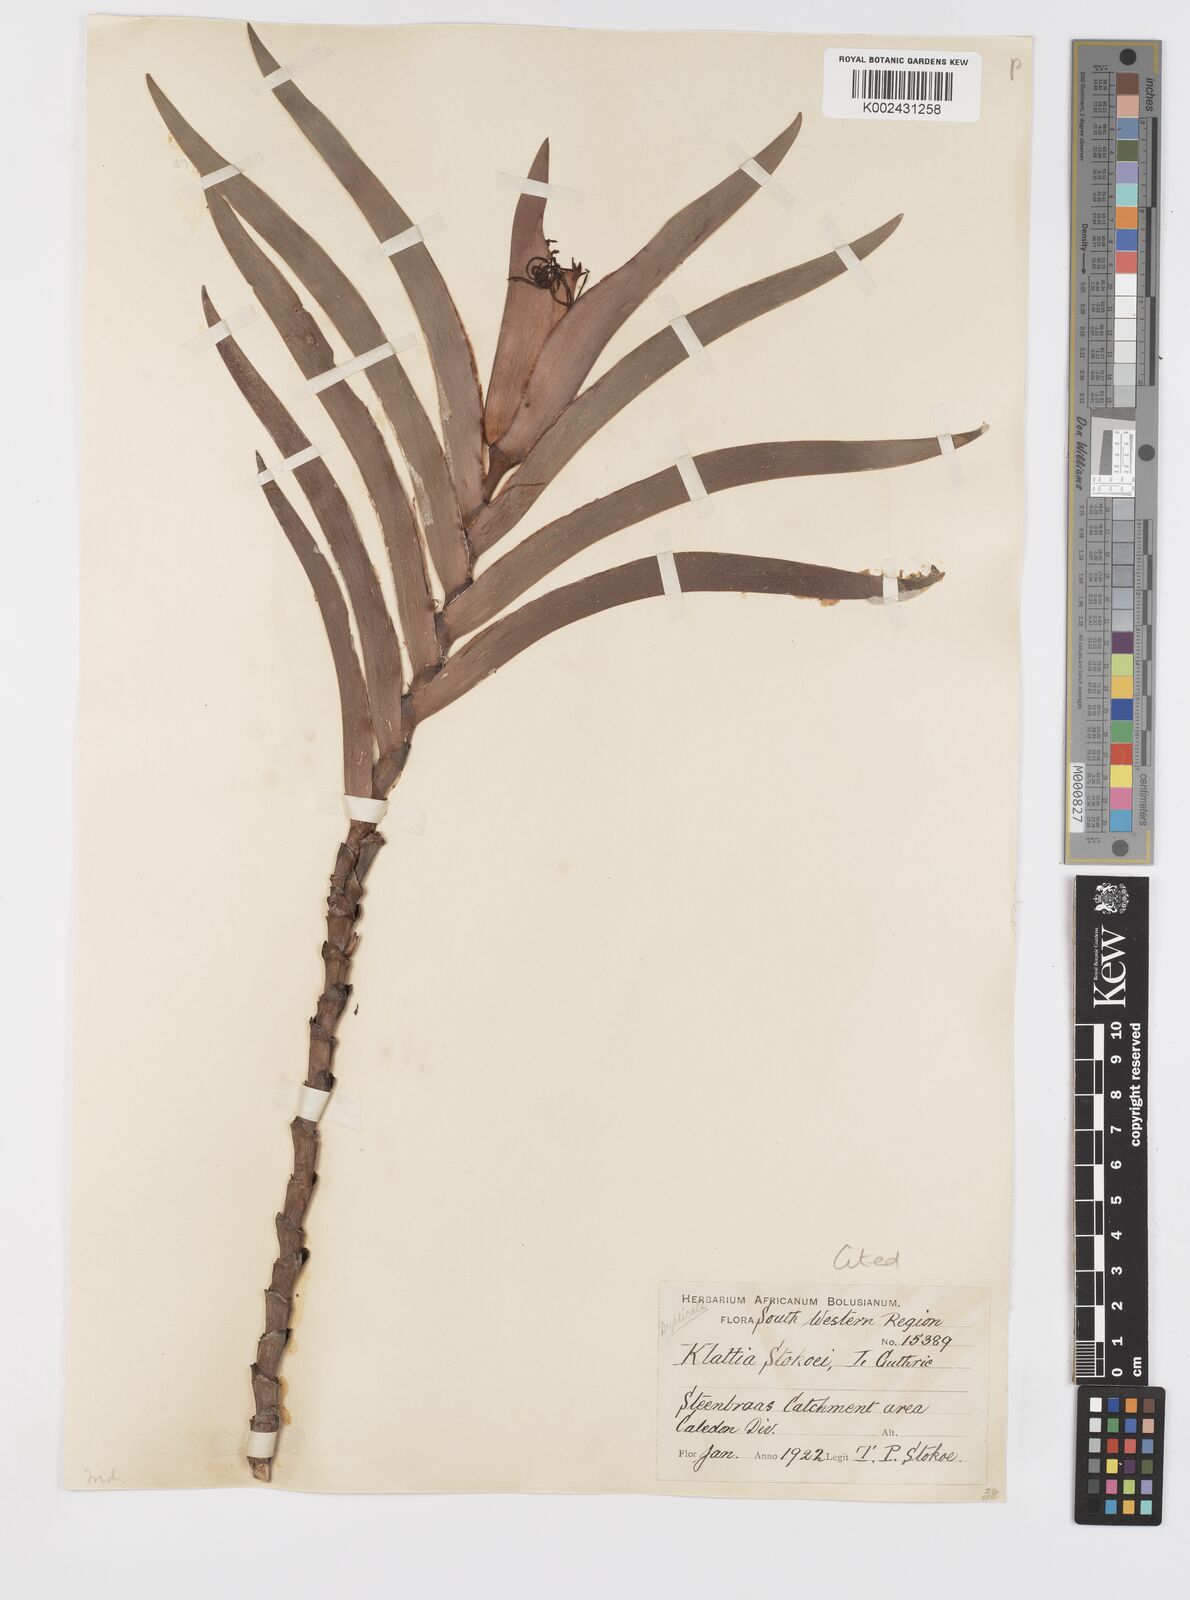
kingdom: Plantae
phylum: Tracheophyta
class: Liliopsida
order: Asparagales
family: Iridaceae
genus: Klattia
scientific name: Klattia stokoei
